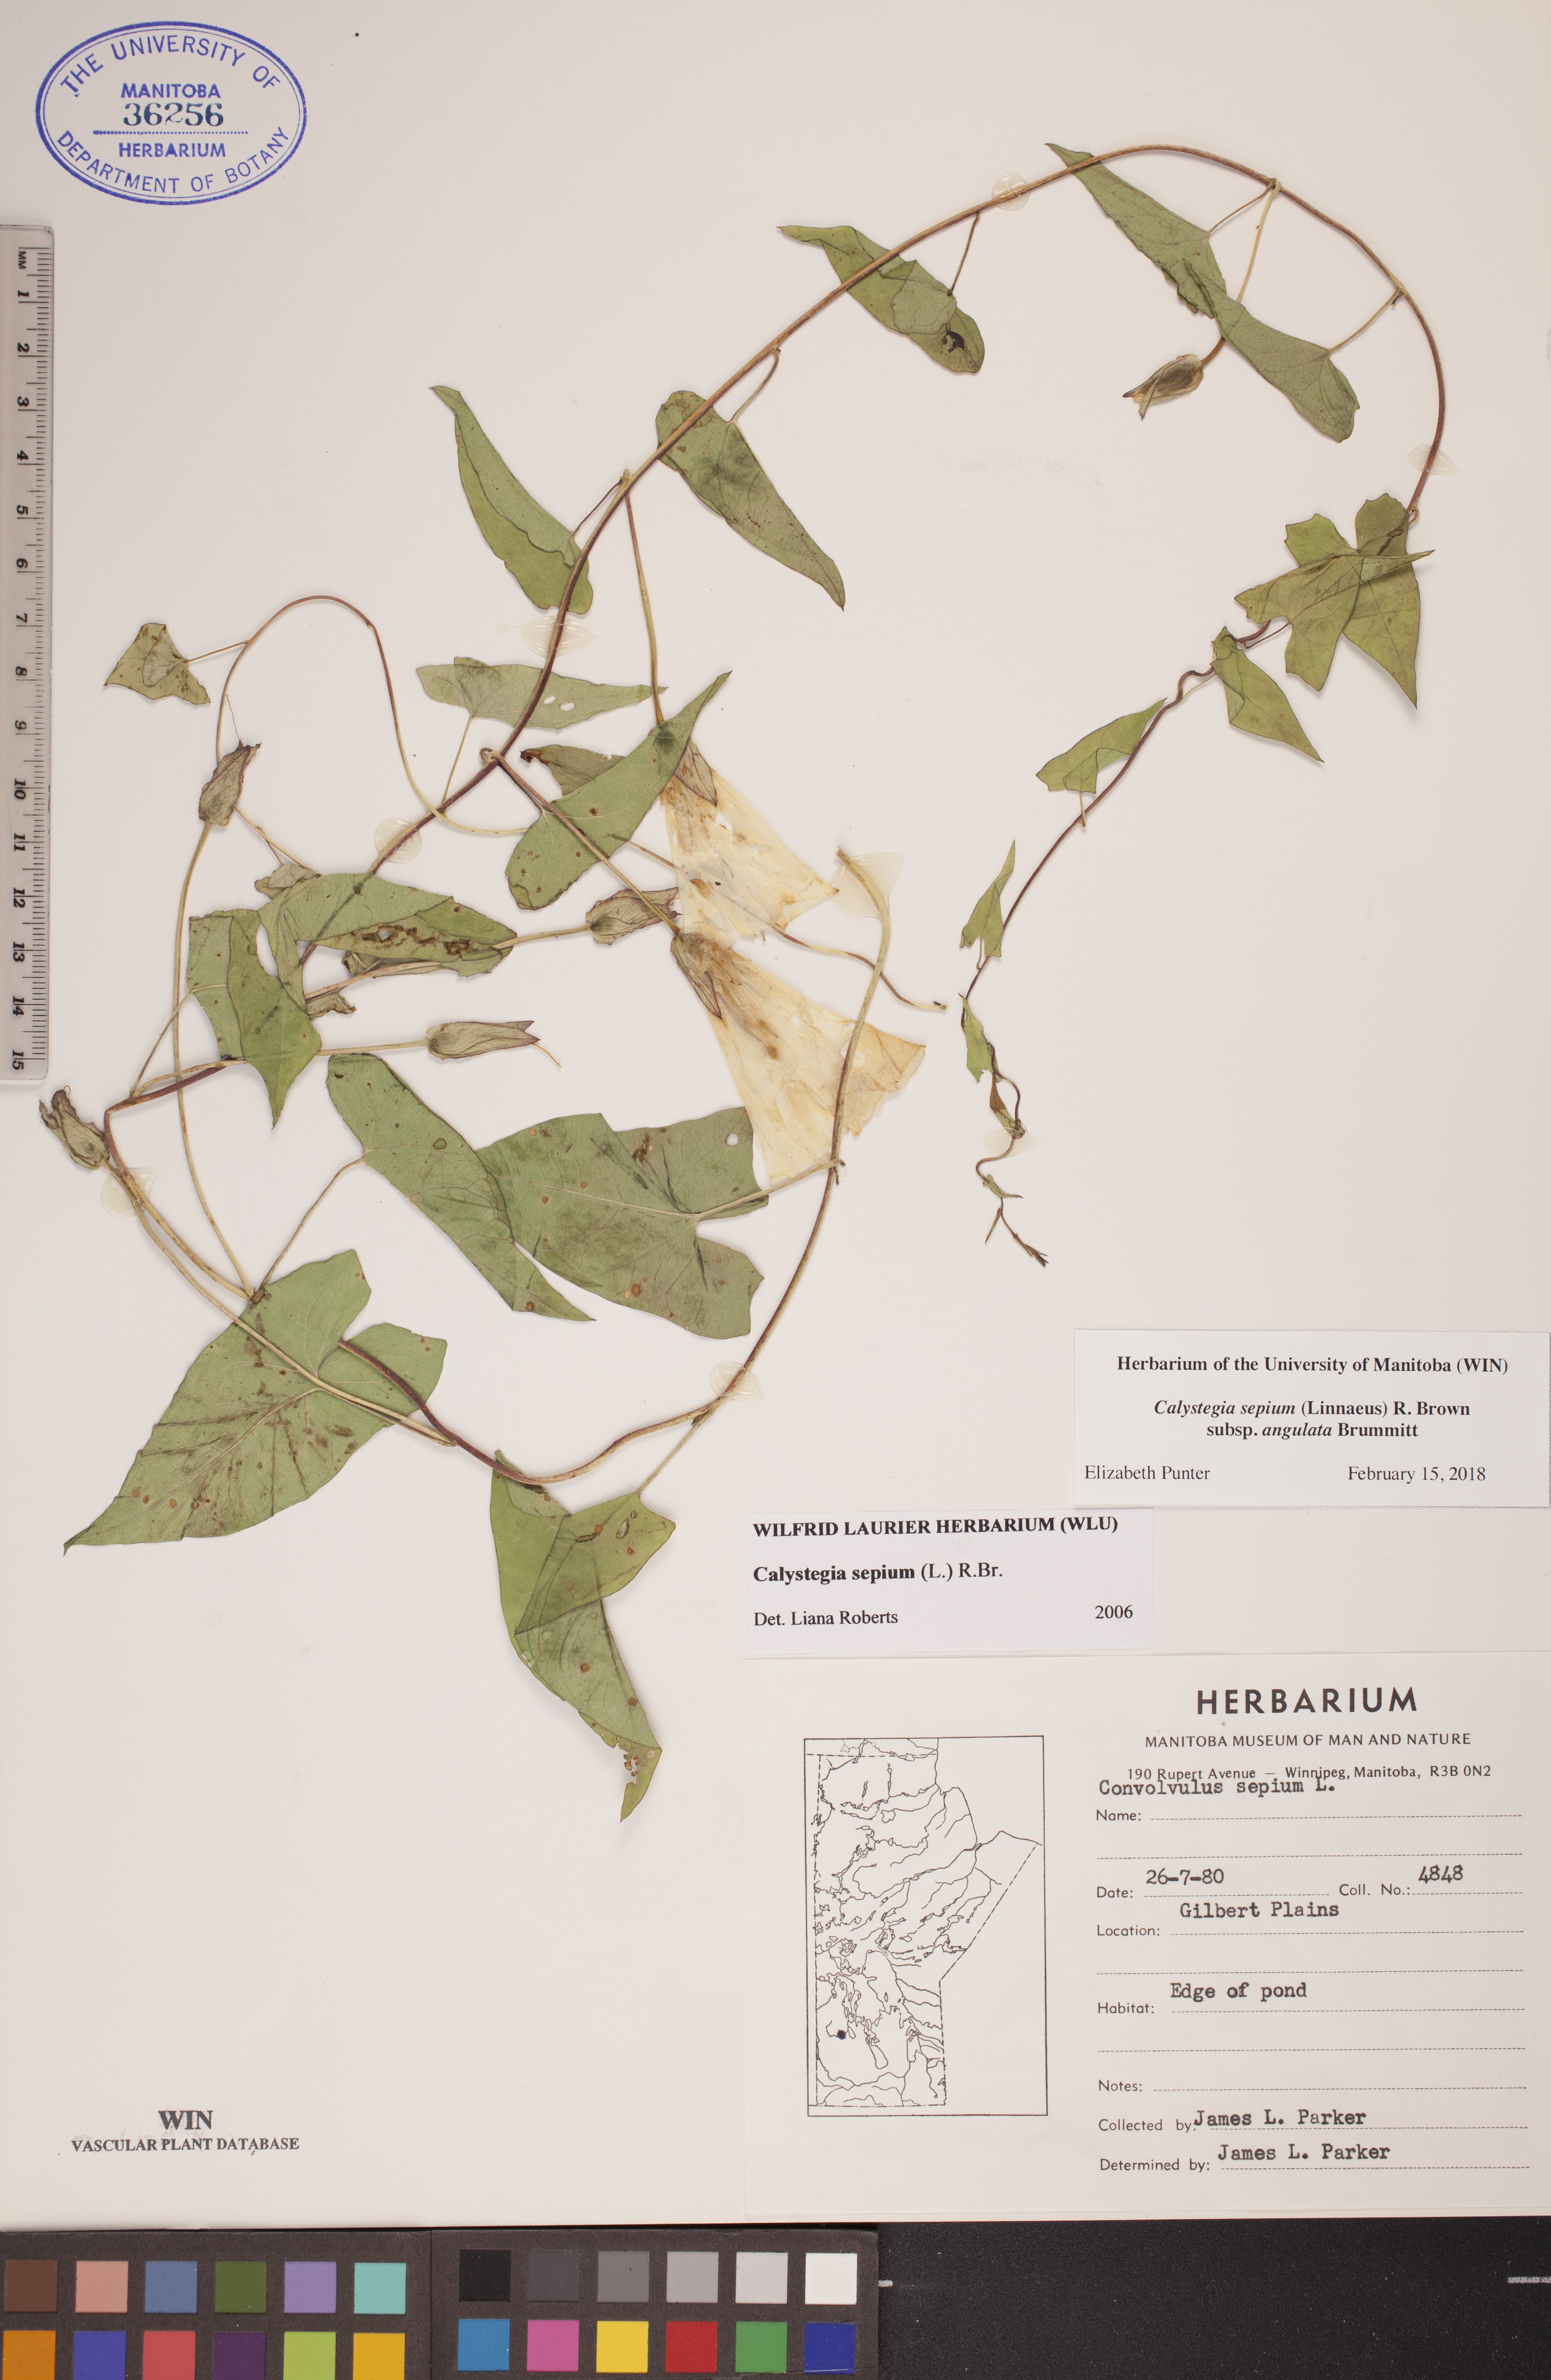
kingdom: Plantae
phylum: Tracheophyta
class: Magnoliopsida
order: Solanales
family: Convolvulaceae
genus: Calystegia
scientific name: Calystegia sepium
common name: Hedge bindweed
